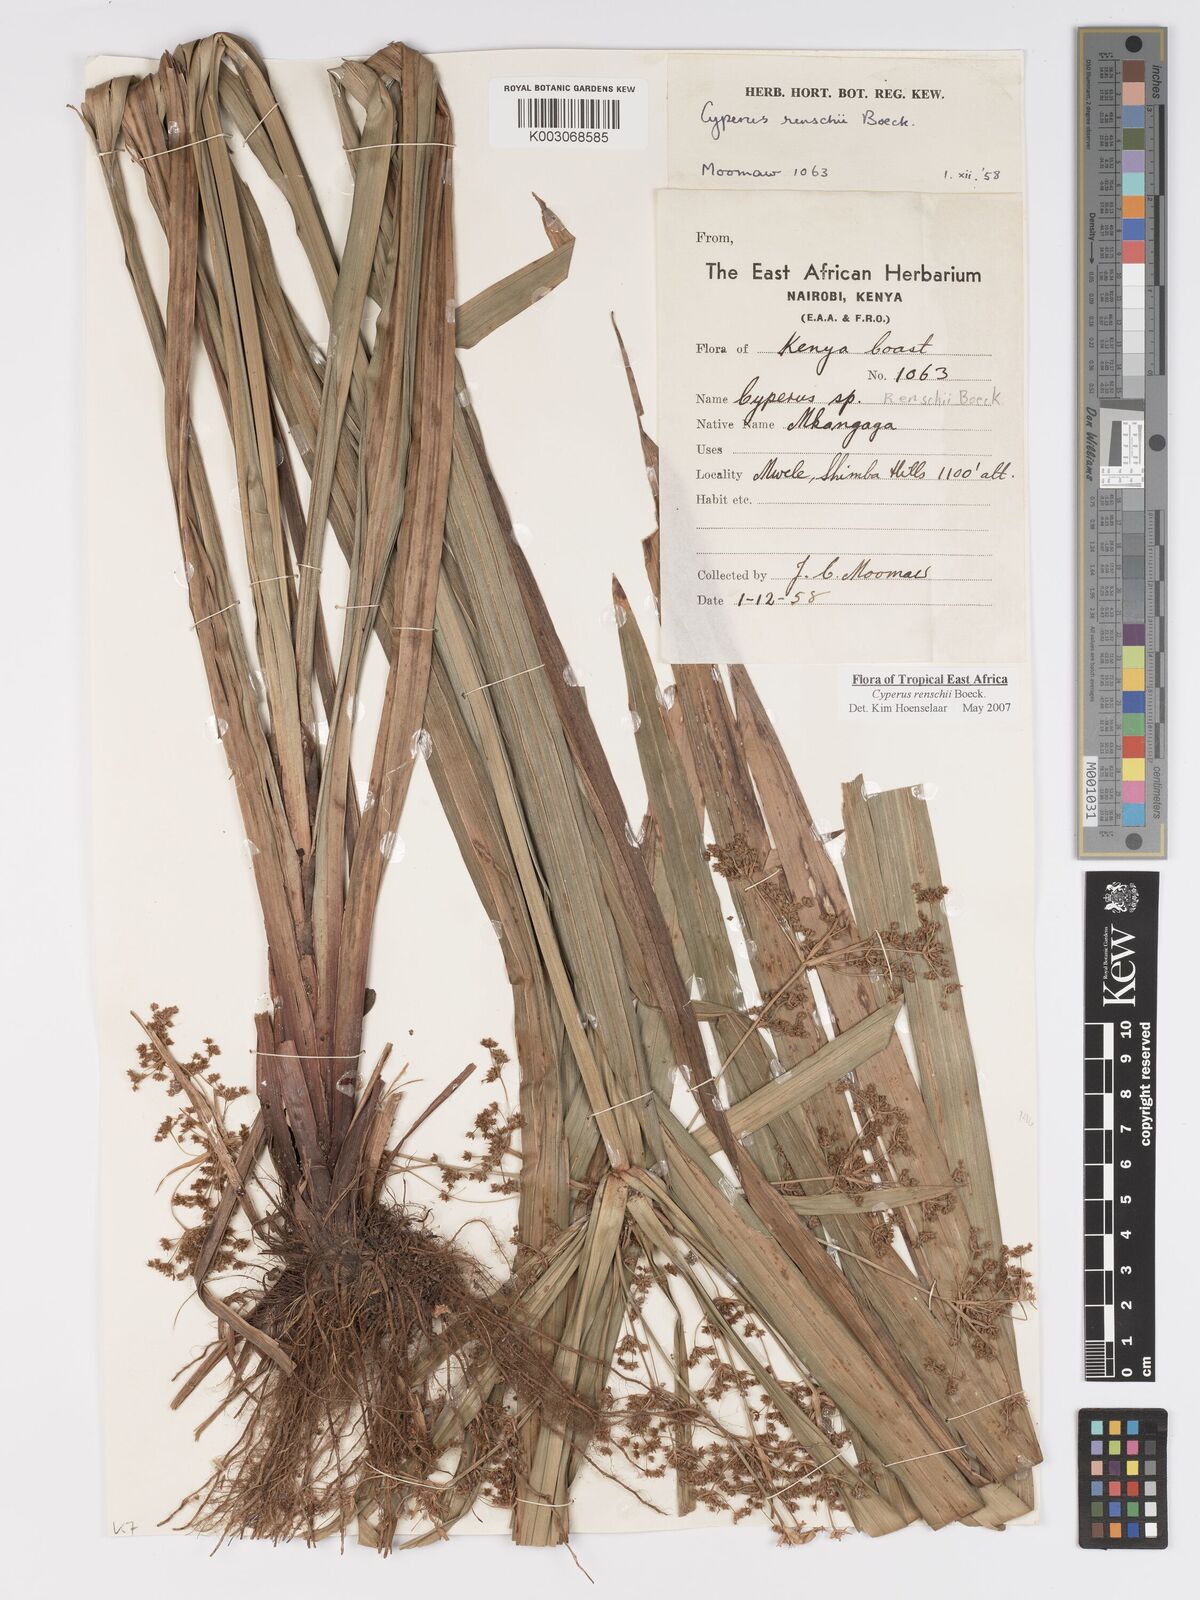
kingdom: Plantae
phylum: Tracheophyta
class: Liliopsida
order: Poales
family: Cyperaceae
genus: Cyperus
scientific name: Cyperus renschii
